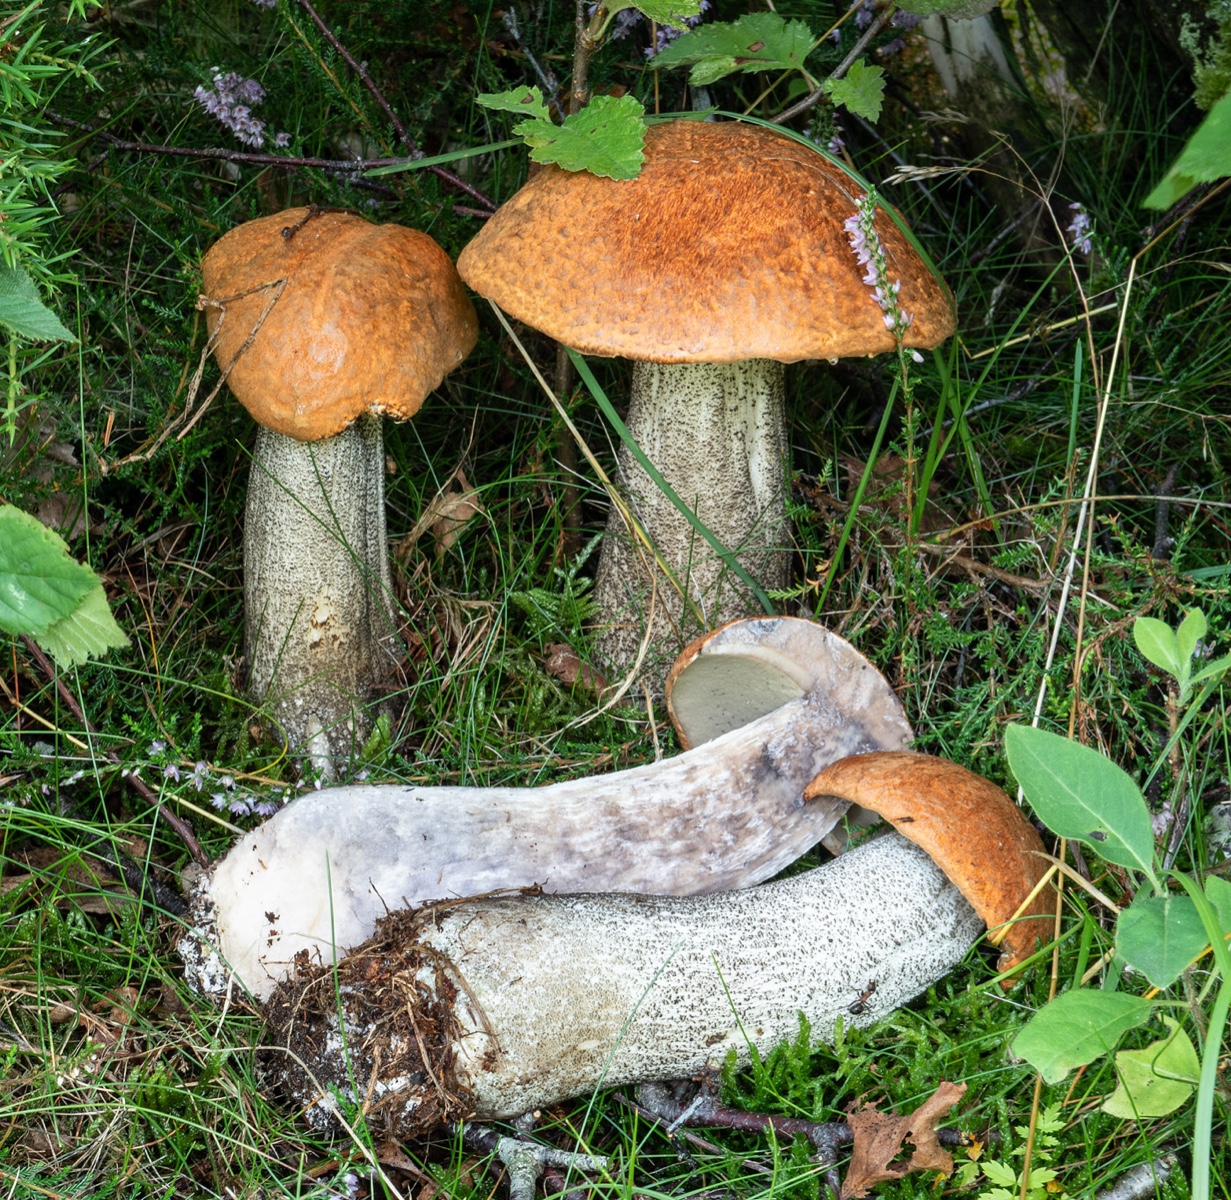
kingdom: Fungi
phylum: Basidiomycota
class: Agaricomycetes
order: Boletales
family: Boletaceae
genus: Leccinum
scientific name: Leccinum versipelle
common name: orange skælrørhat
